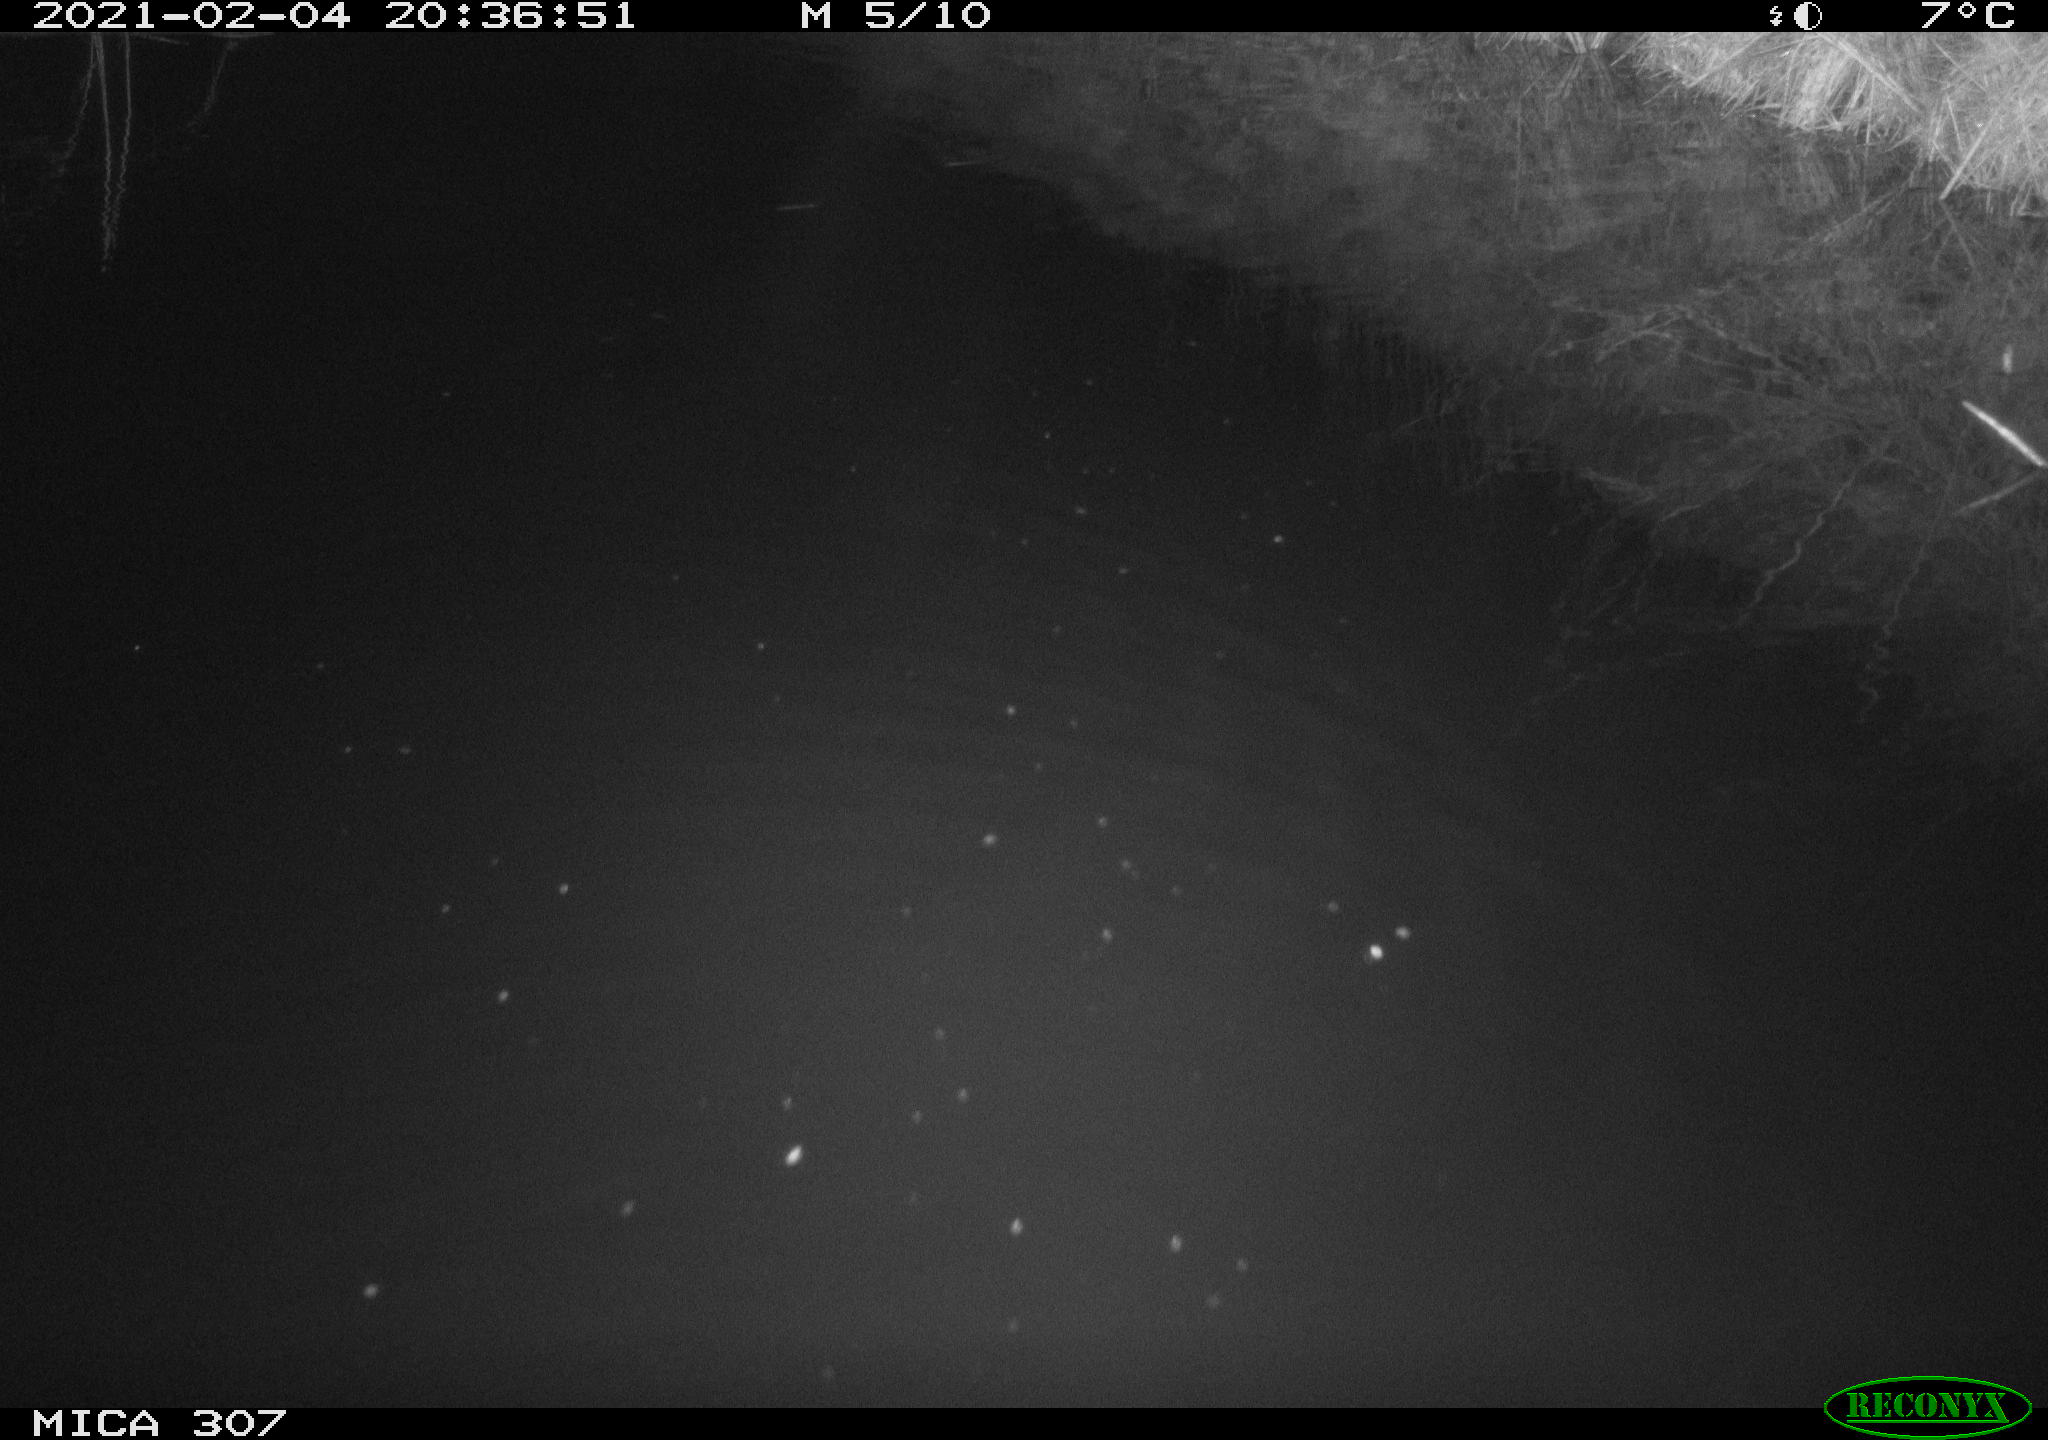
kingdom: Animalia
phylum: Chordata
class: Mammalia
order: Rodentia
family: Muridae
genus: Rattus
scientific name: Rattus norvegicus
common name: Brown rat
